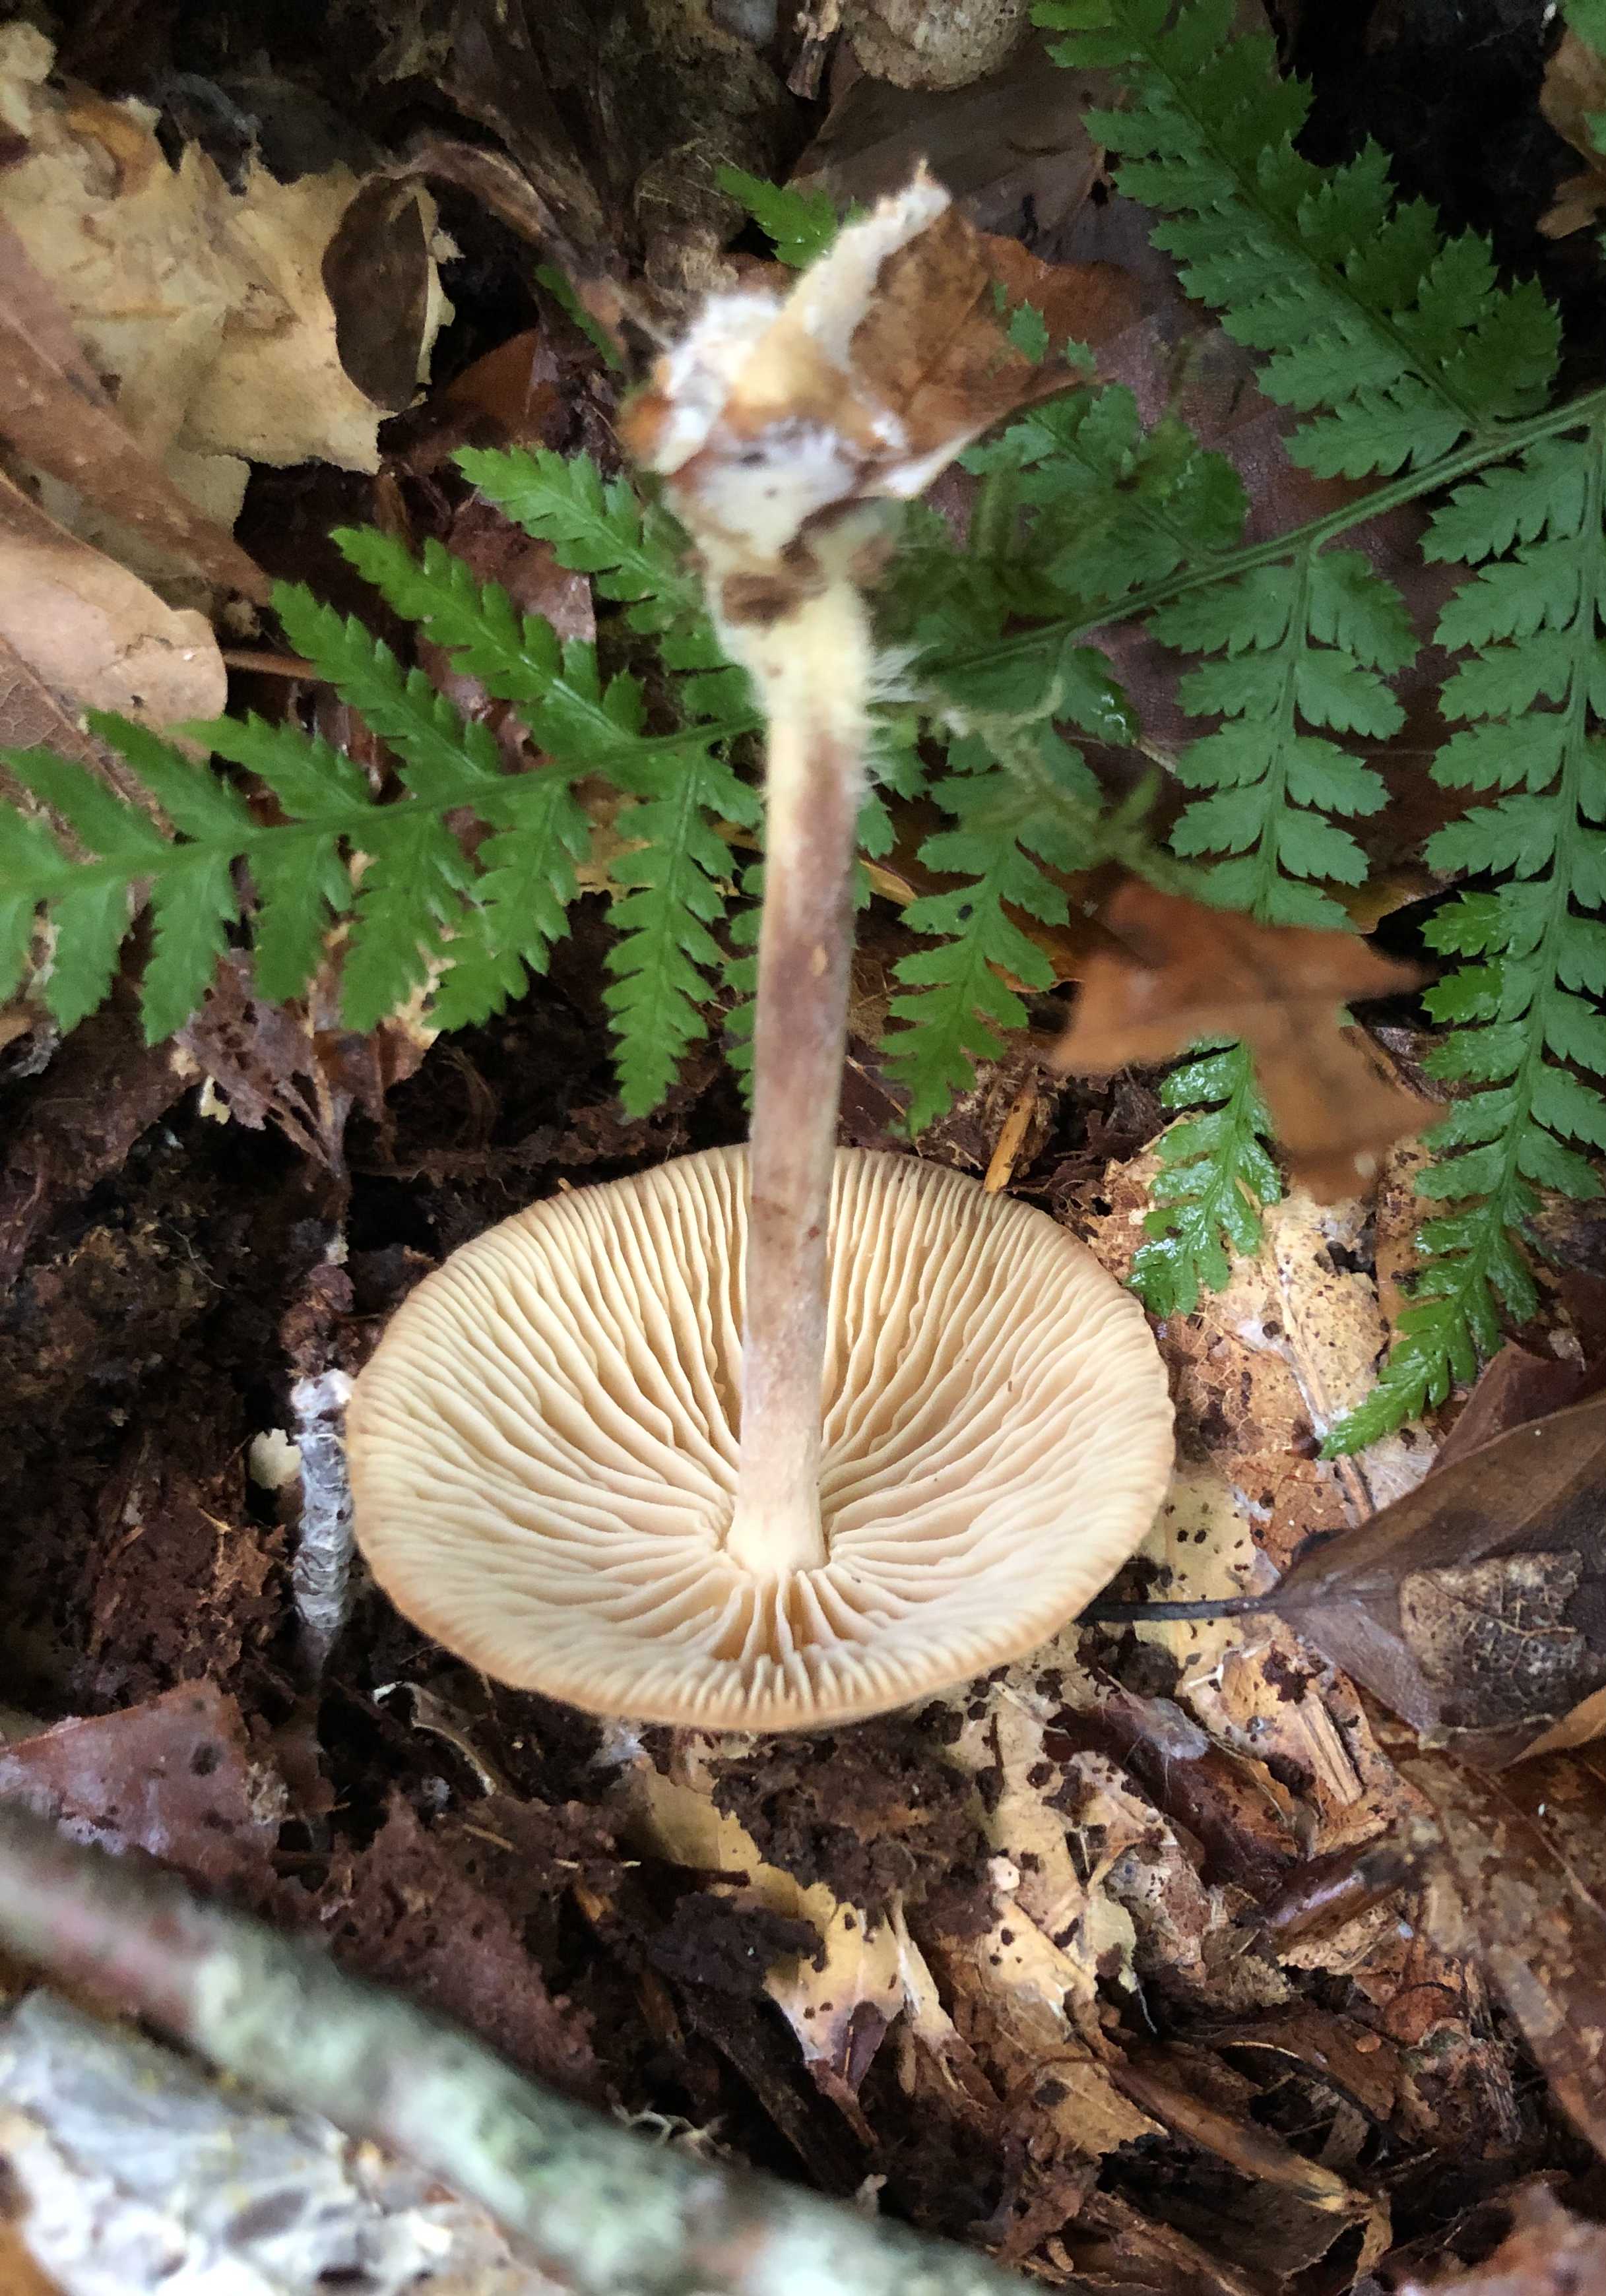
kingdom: Fungi
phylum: Basidiomycota
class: Agaricomycetes
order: Agaricales
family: Omphalotaceae
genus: Collybiopsis
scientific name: Collybiopsis peronata
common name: bestøvlet fladhat
